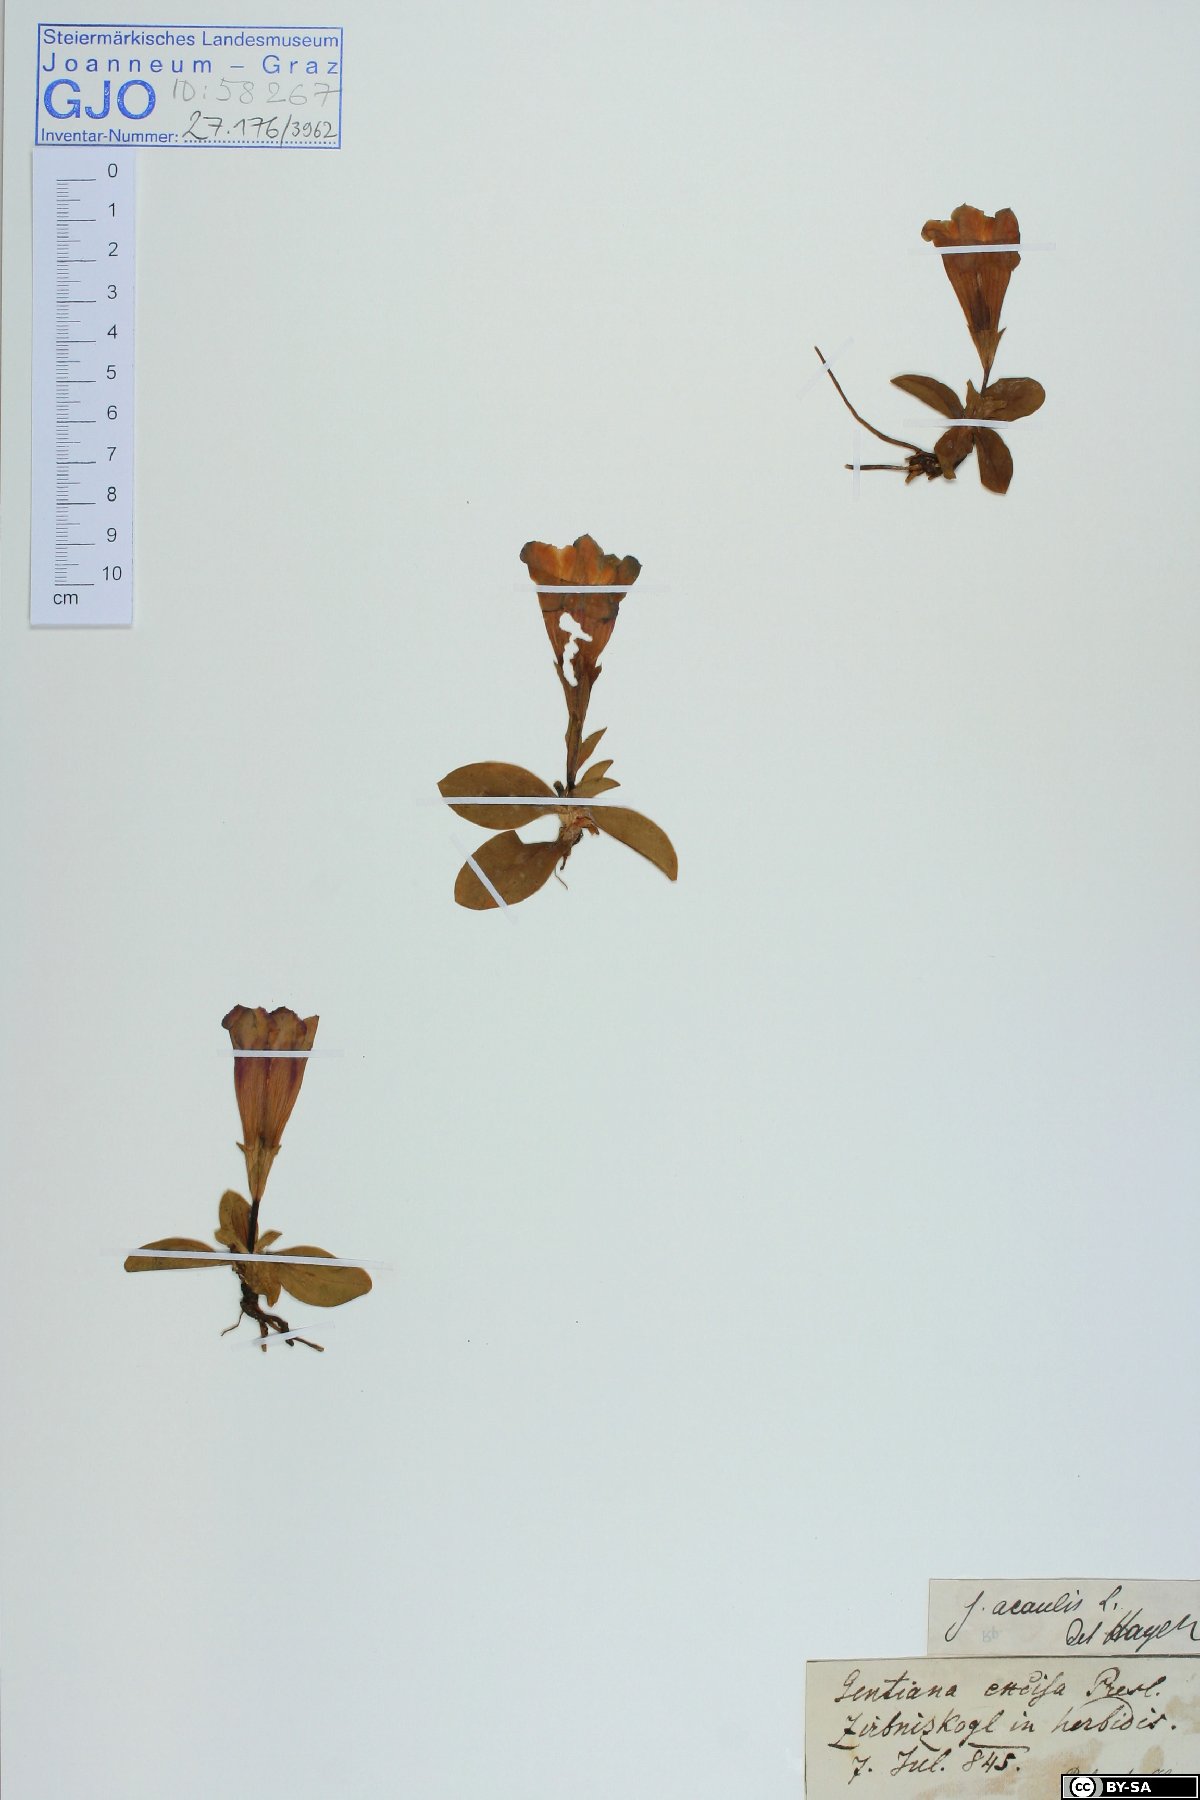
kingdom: Plantae
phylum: Tracheophyta
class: Magnoliopsida
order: Gentianales
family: Gentianaceae
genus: Gentiana
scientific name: Gentiana acaulis
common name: Trumpet gentian
